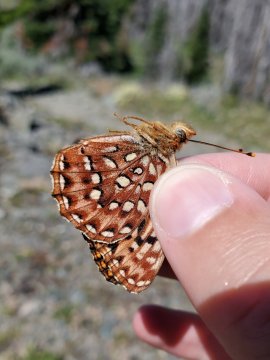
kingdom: Animalia
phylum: Arthropoda
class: Insecta
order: Lepidoptera
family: Nymphalidae
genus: Speyeria
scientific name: Speyeria hydaspe
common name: Hydaspe Fritillary
